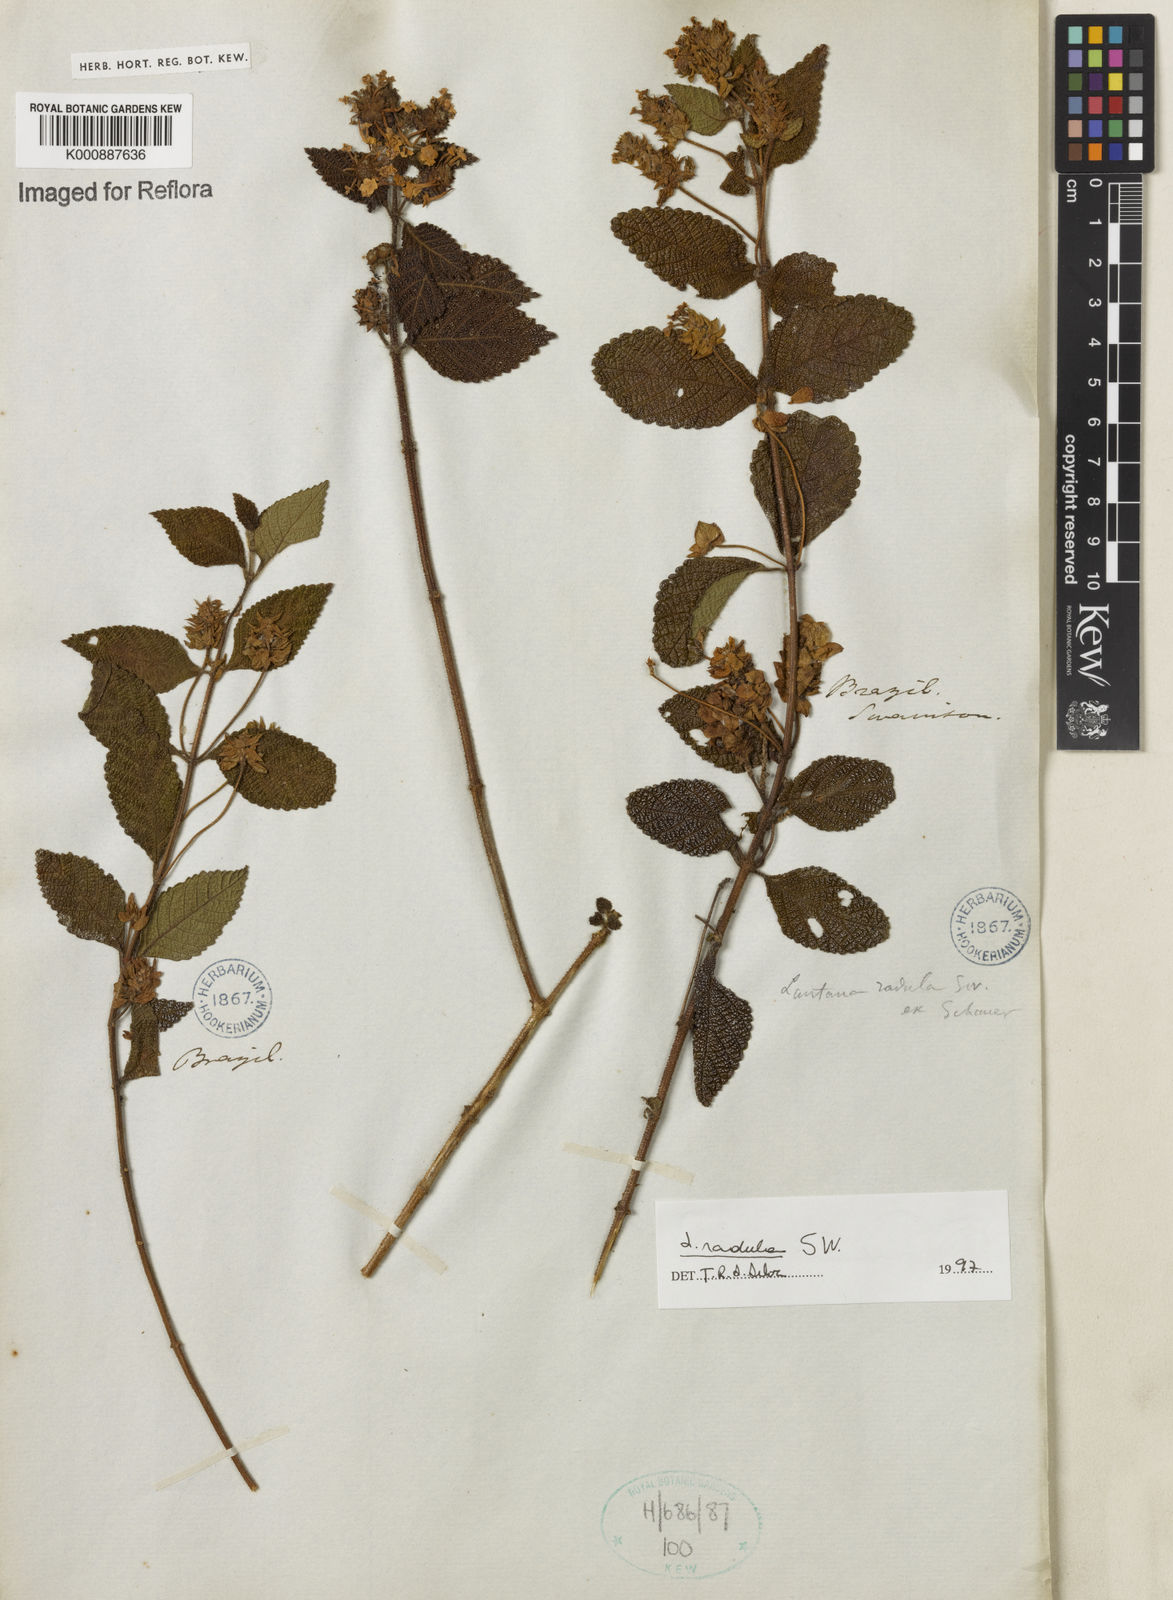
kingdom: Plantae
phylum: Tracheophyta
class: Magnoliopsida
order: Lamiales
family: Verbenaceae
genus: Lantana
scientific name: Lantana radula
